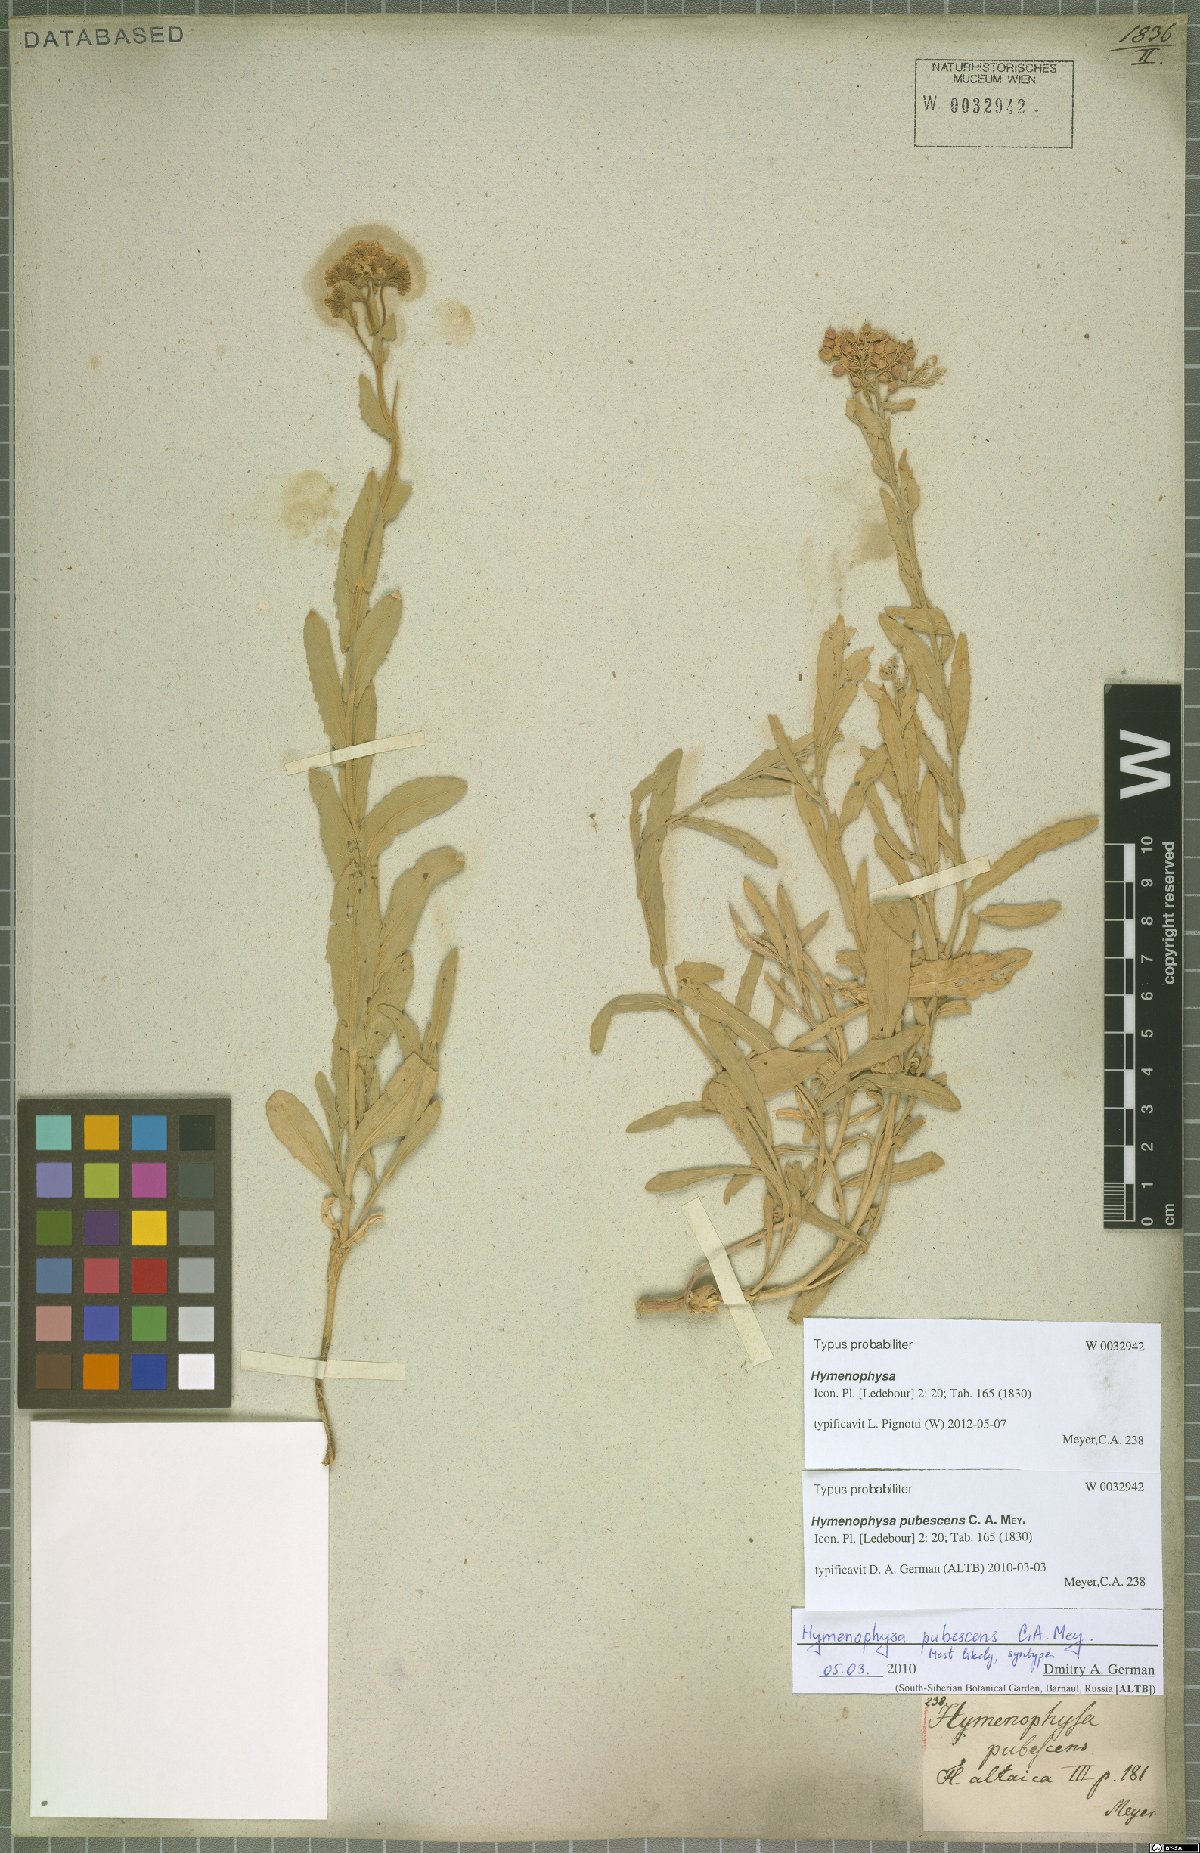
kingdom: Plantae
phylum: Tracheophyta
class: Magnoliopsida
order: Brassicales
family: Brassicaceae
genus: Lepidium
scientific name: Lepidium appelianum
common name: Hairy whitetop
